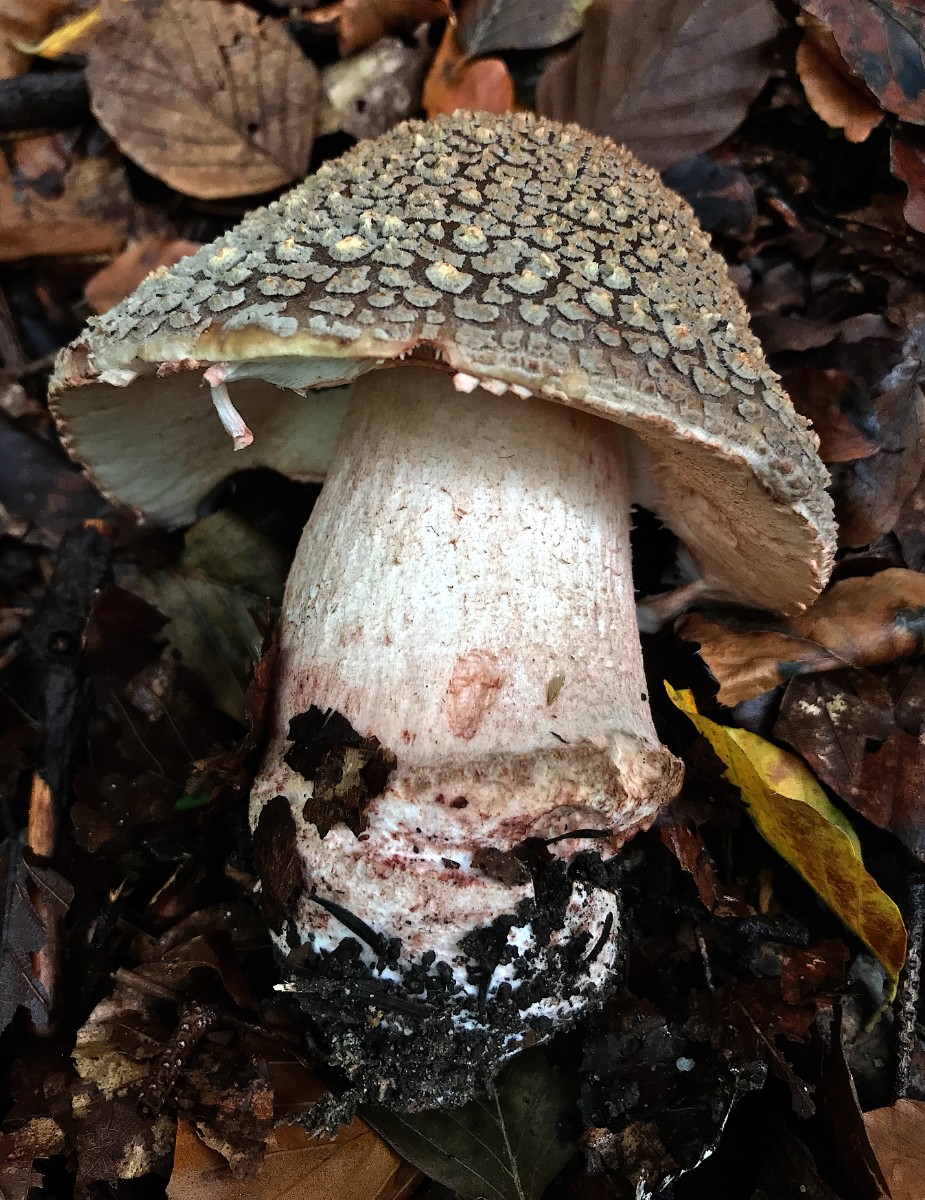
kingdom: Fungi
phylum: Basidiomycota
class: Agaricomycetes
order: Agaricales
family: Amanitaceae
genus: Amanita
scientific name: Amanita rubescens
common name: rødmende fluesvamp
